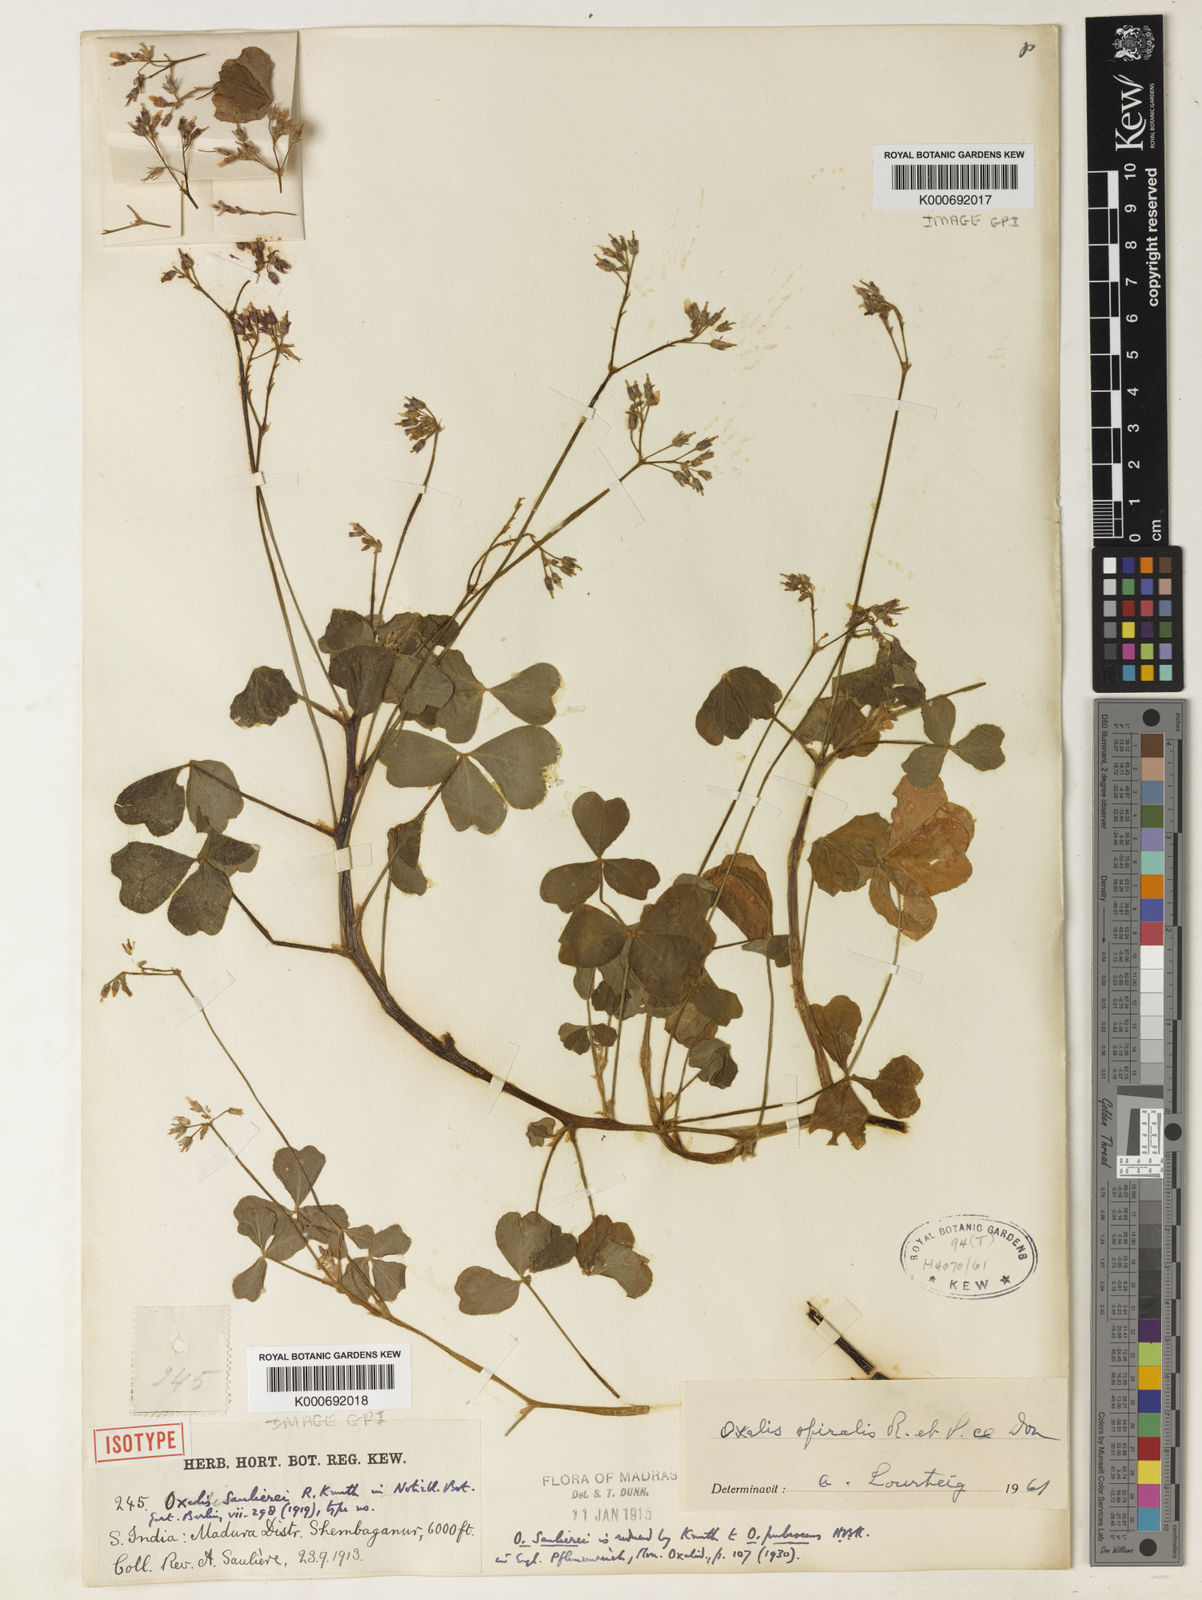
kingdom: Plantae
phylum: Tracheophyta
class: Magnoliopsida
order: Oxalidales
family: Oxalidaceae
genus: Oxalis
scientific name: Oxalis
